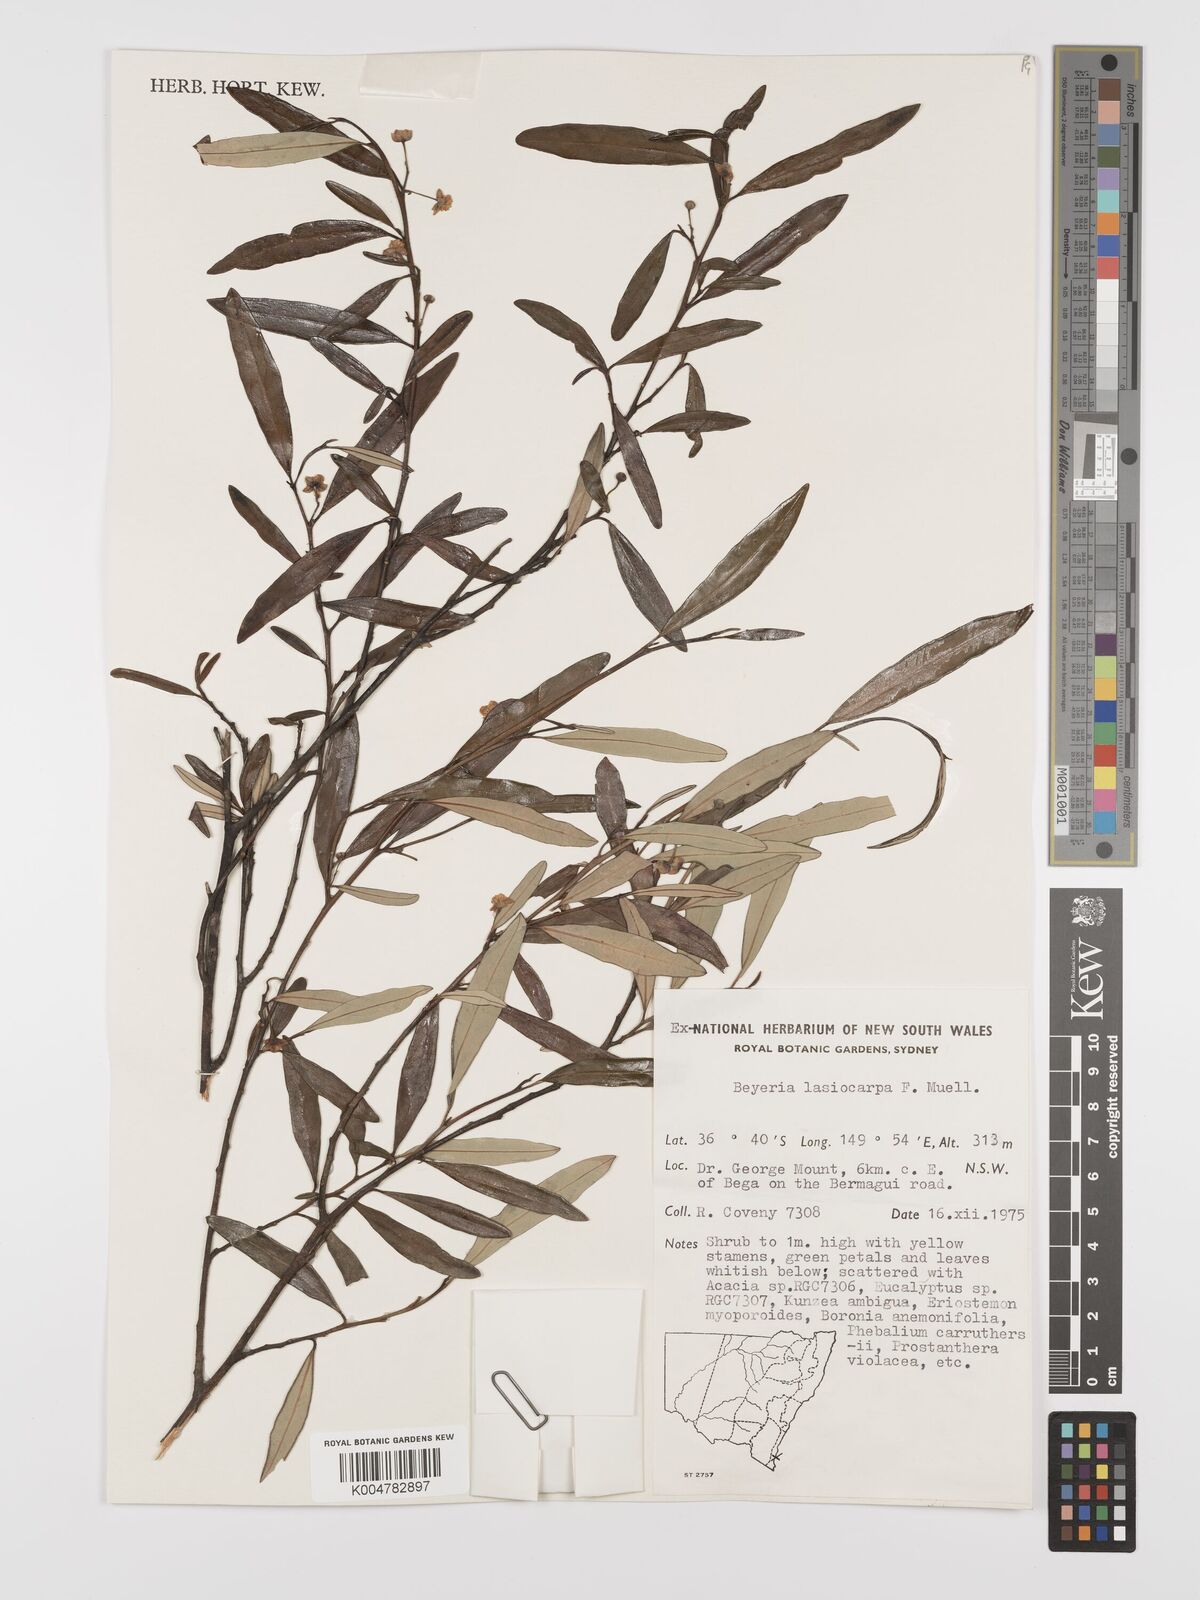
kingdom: Plantae
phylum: Tracheophyta
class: Magnoliopsida
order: Malpighiales
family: Euphorbiaceae
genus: Beyeria
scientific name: Beyeria lasiocarpa
